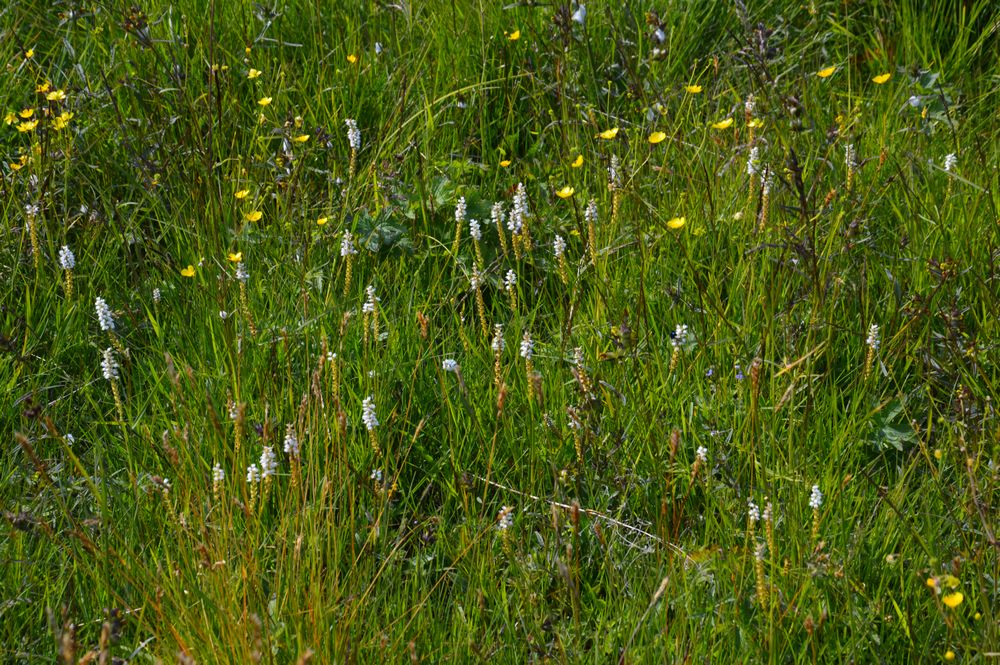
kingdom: Plantae
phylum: Tracheophyta
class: Magnoliopsida
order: Caryophyllales
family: Polygonaceae
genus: Bistorta
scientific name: Bistorta
